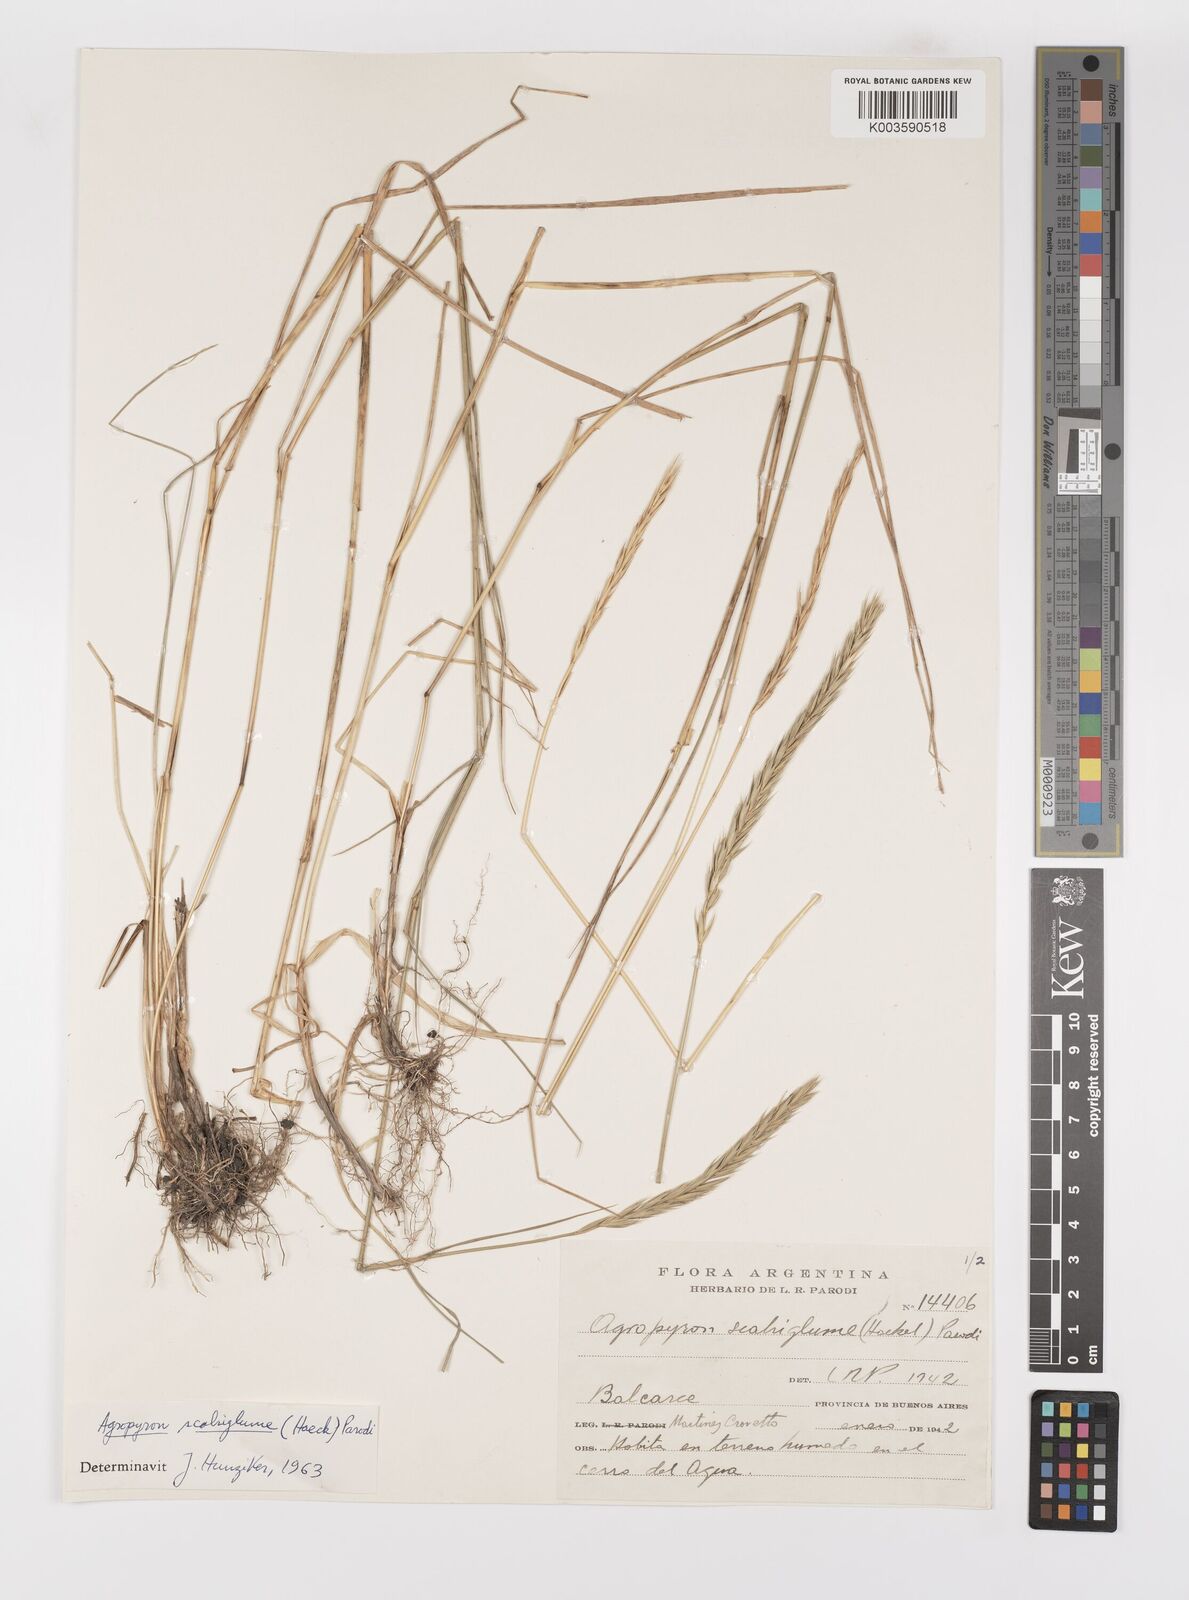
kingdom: Plantae
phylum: Tracheophyta
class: Liliopsida
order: Poales
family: Poaceae
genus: Elymus
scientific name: Elymus scabriglumis
